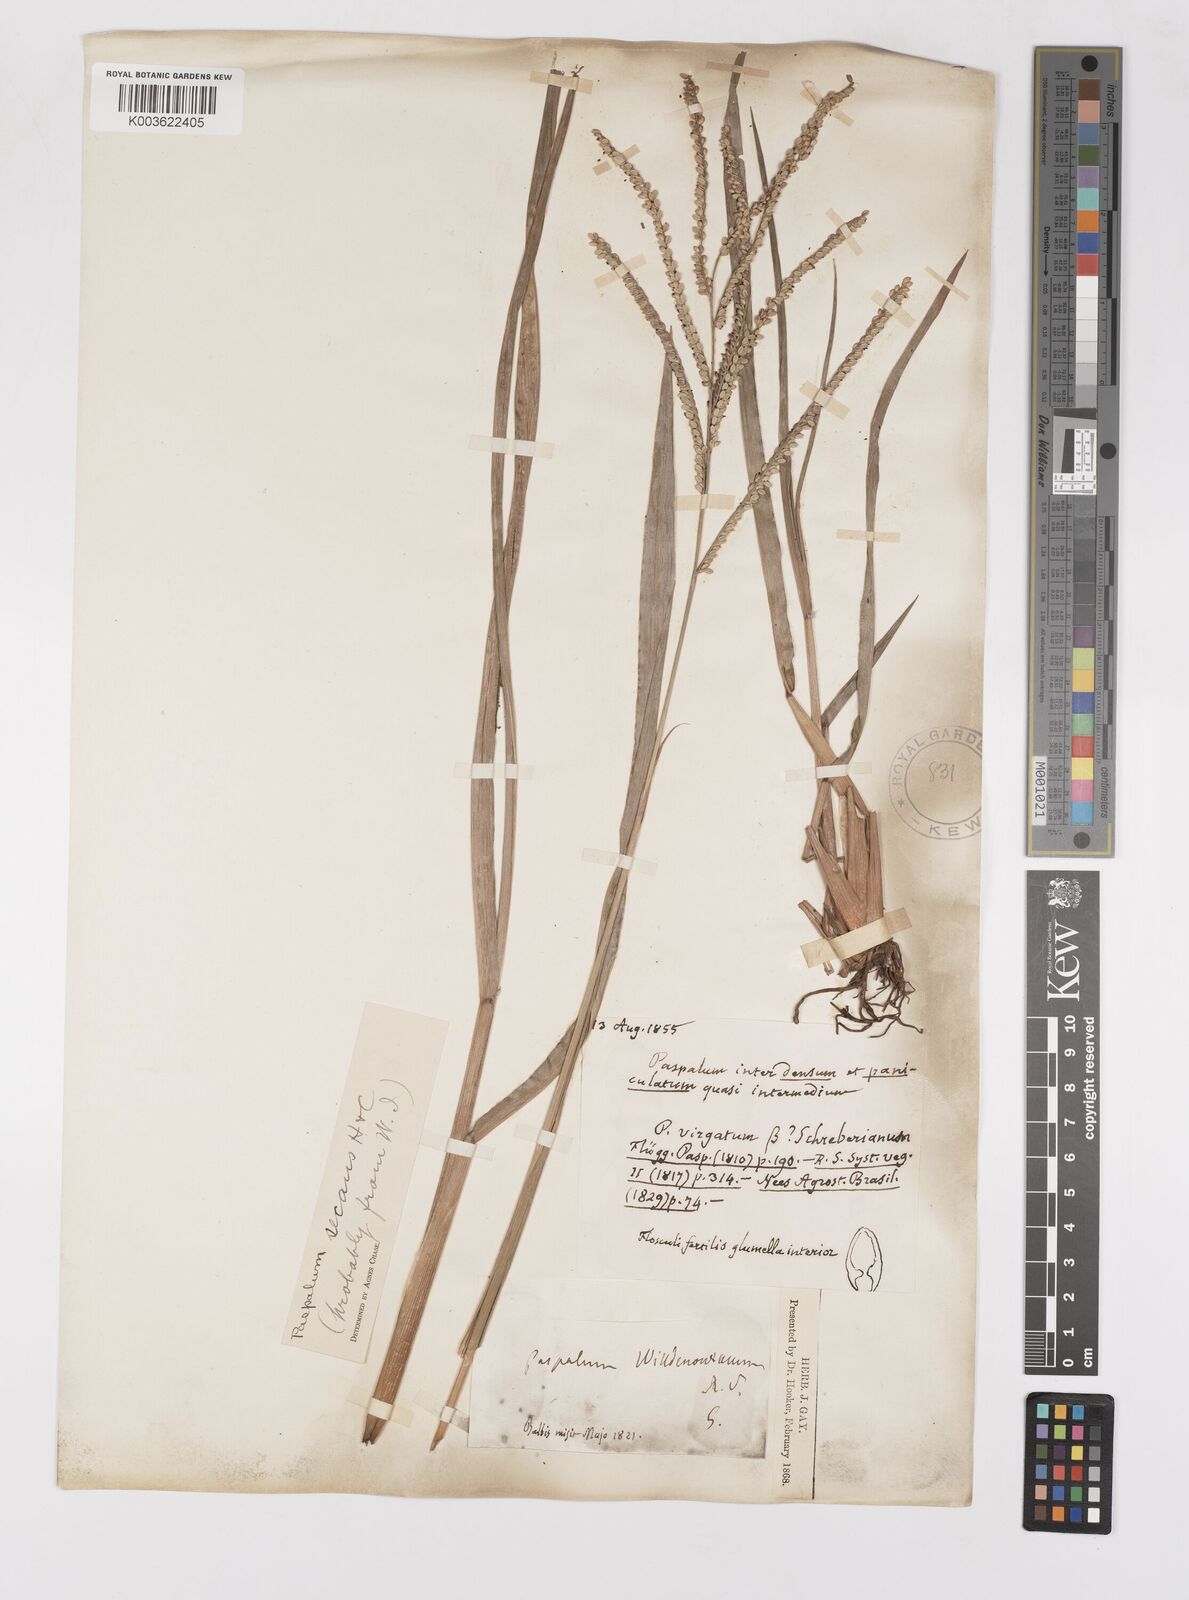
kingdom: Plantae
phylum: Tracheophyta
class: Liliopsida
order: Poales
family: Poaceae
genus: Paspalum
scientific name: Paspalum arundinaceum
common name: Thick ditch crowngrass
